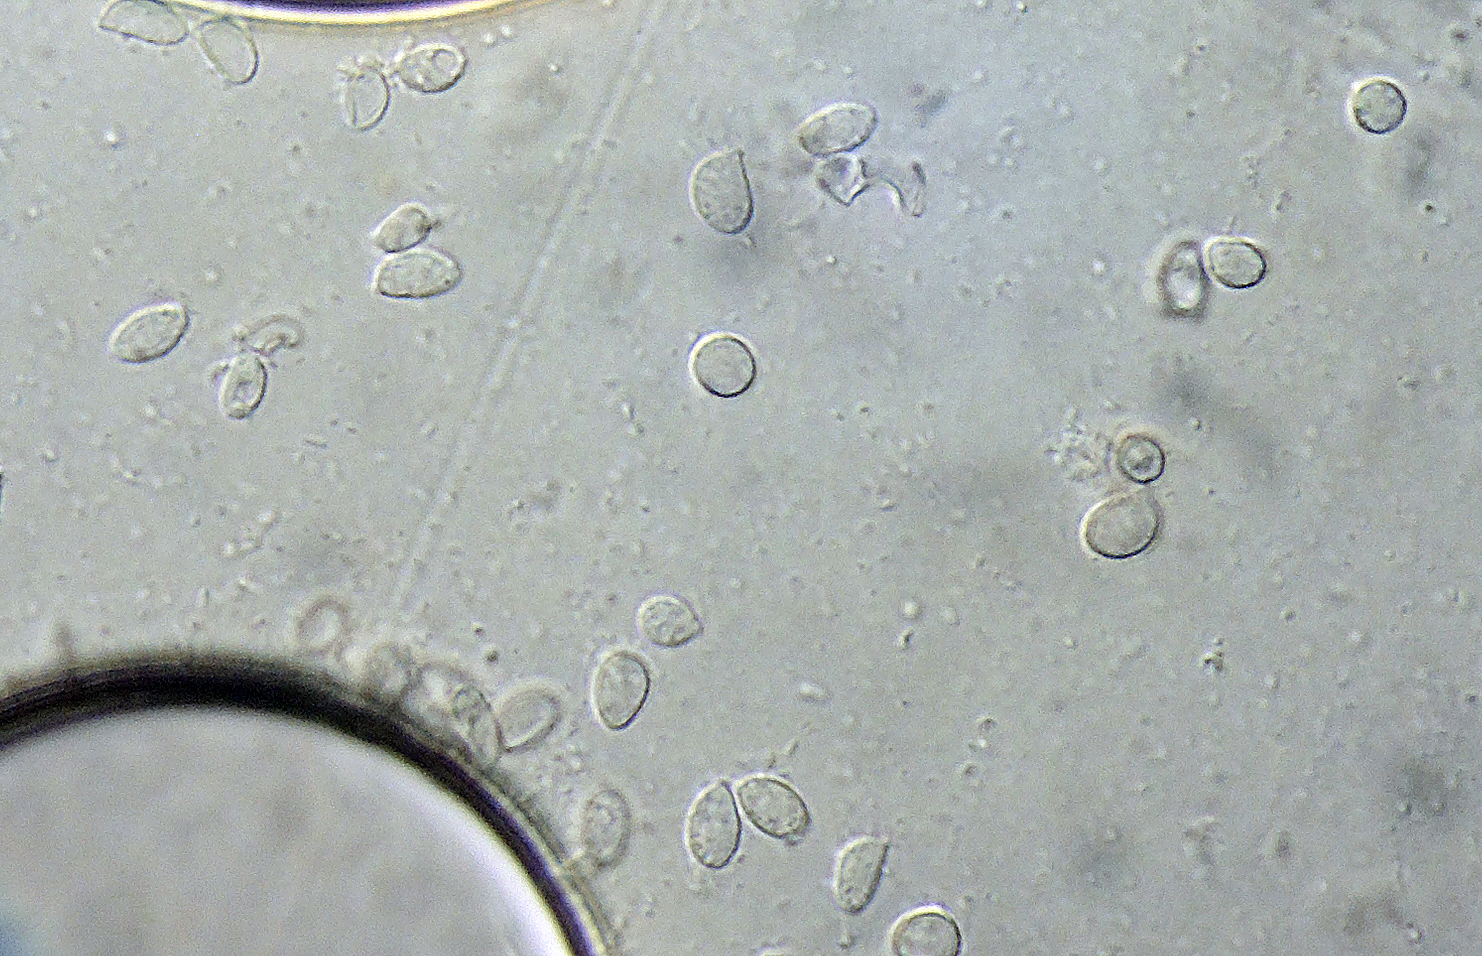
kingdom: Fungi
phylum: Basidiomycota
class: Agaricomycetes
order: Cantharellales
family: Botryobasidiaceae
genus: Botryobasidium
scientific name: Botryobasidium pruinatum
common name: ruhyfet spindhinde
